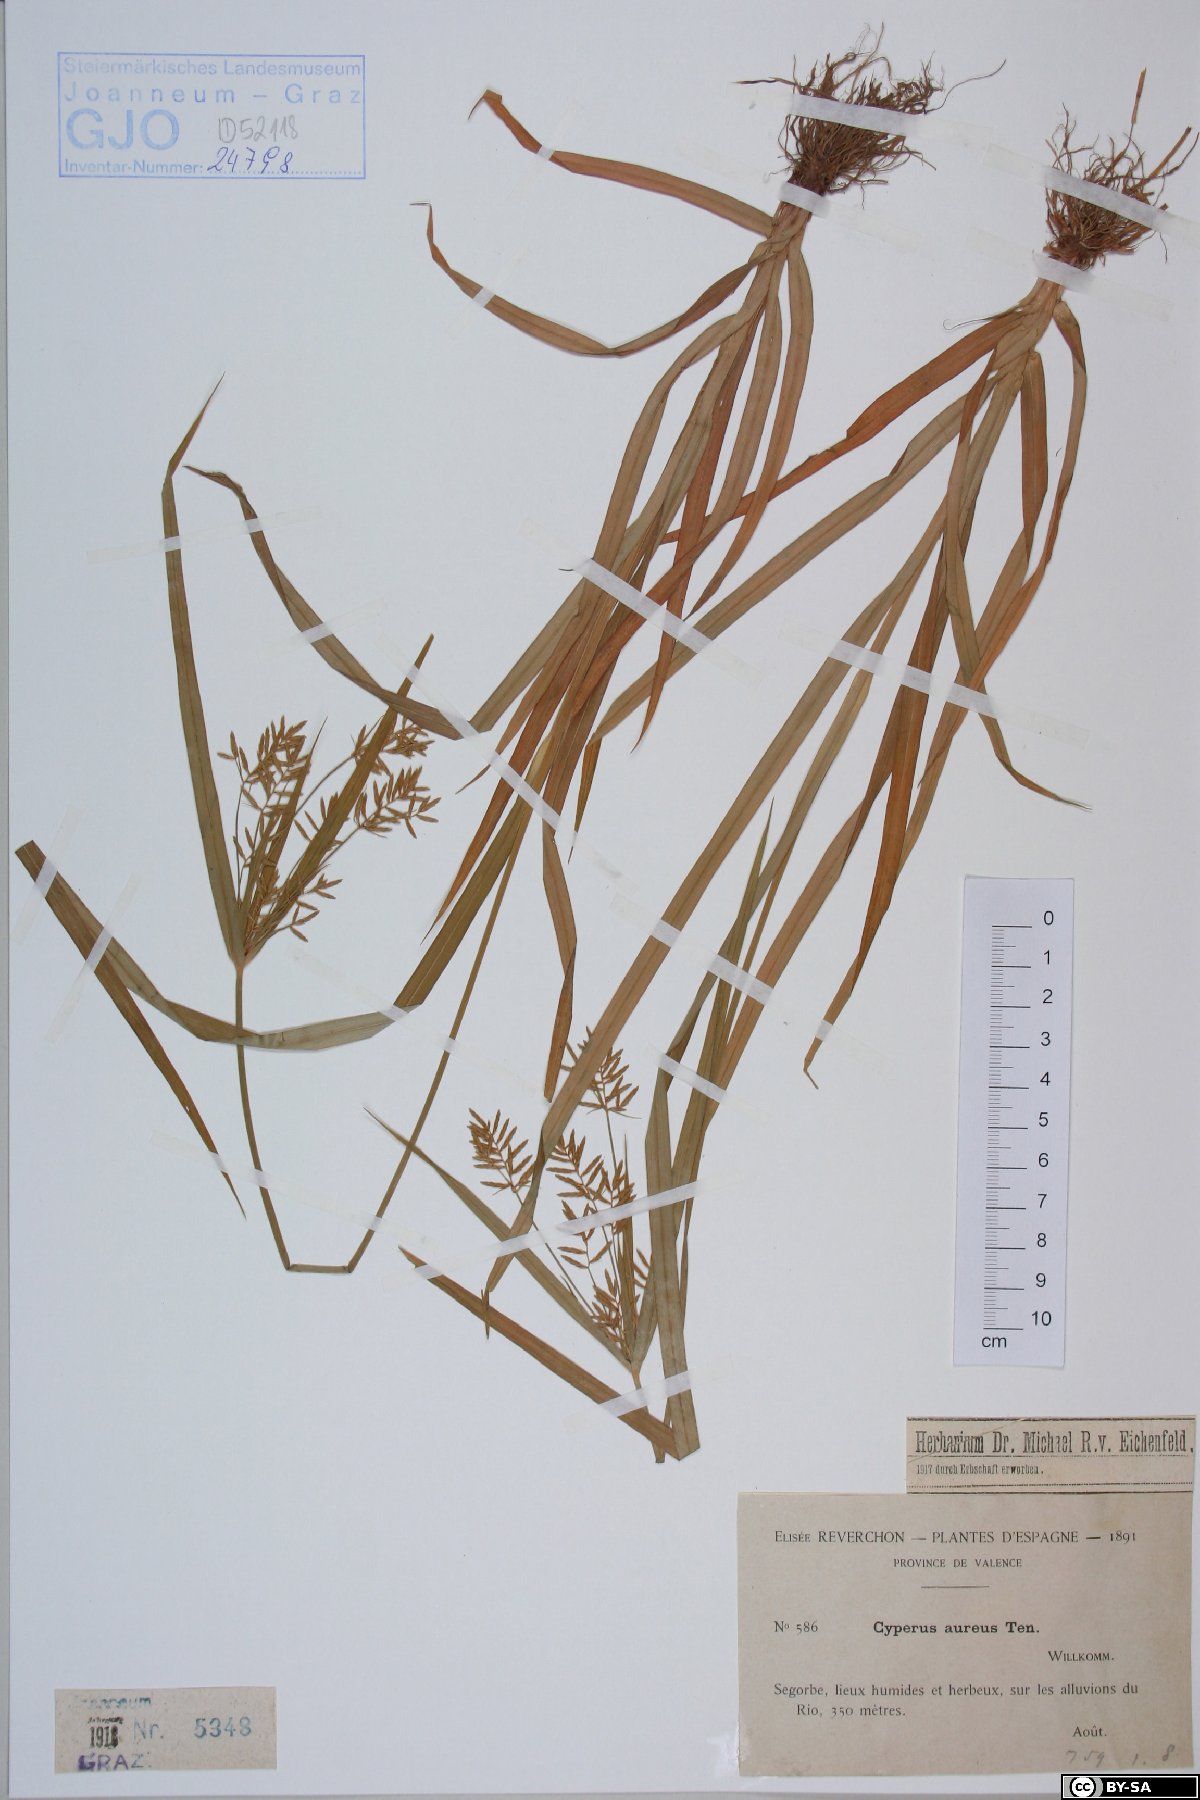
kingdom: Plantae
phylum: Tracheophyta
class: Liliopsida
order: Poales
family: Cyperaceae
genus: Cyperus
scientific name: Cyperus amabilis
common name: Foothill flat sedge
